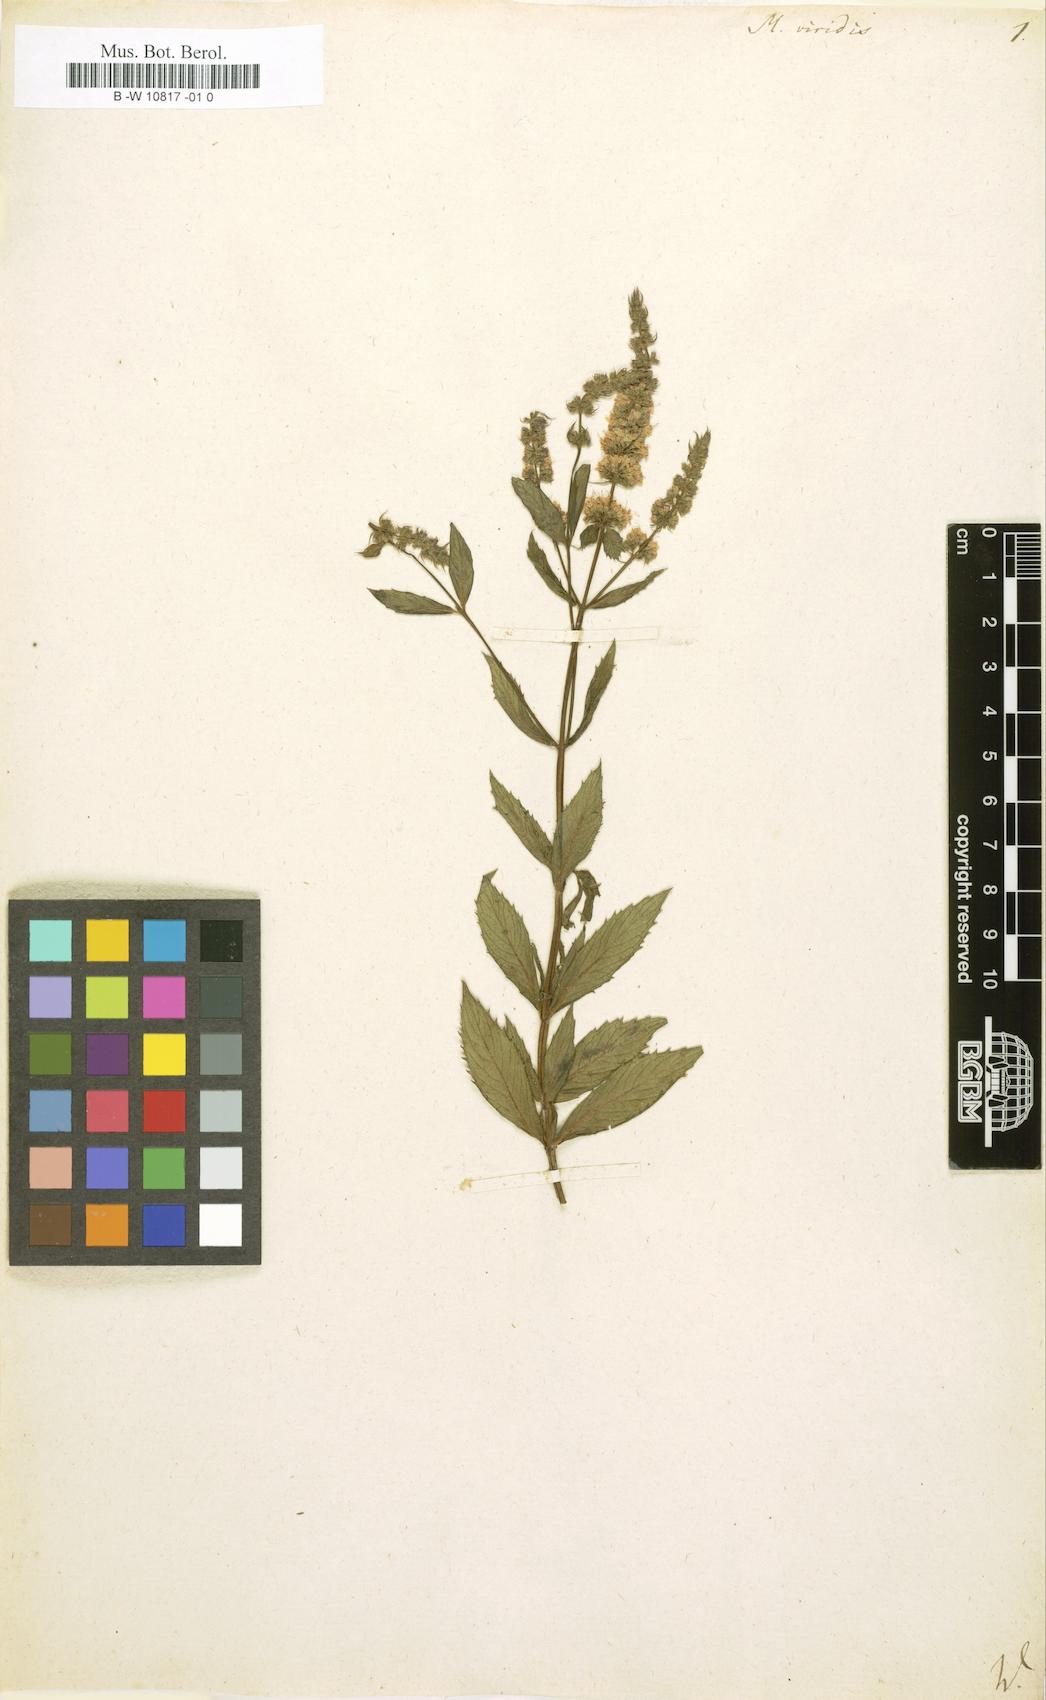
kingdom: Plantae
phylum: Tracheophyta
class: Magnoliopsida
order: Lamiales
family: Lamiaceae
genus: Mentha
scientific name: Mentha spicata
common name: Spearmint
